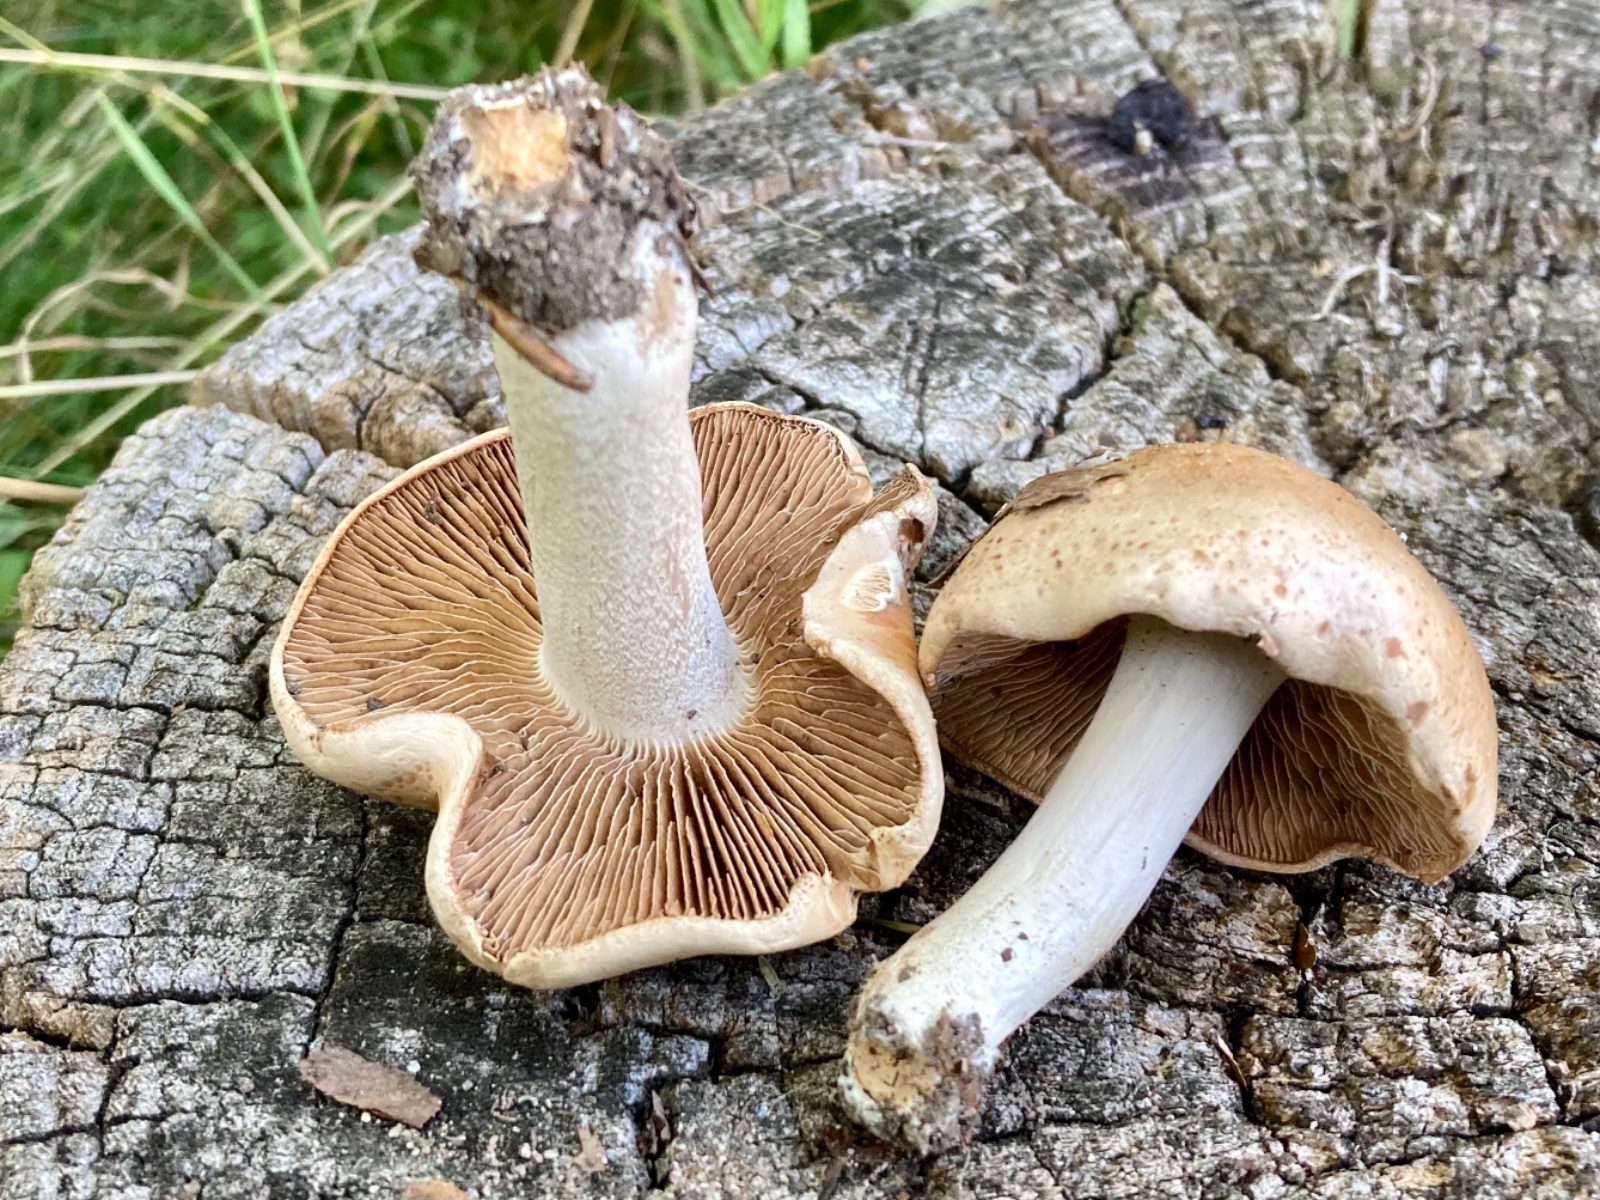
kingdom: Fungi
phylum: Basidiomycota
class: Agaricomycetes
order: Agaricales
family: Hymenogastraceae
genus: Hebeloma
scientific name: Hebeloma
